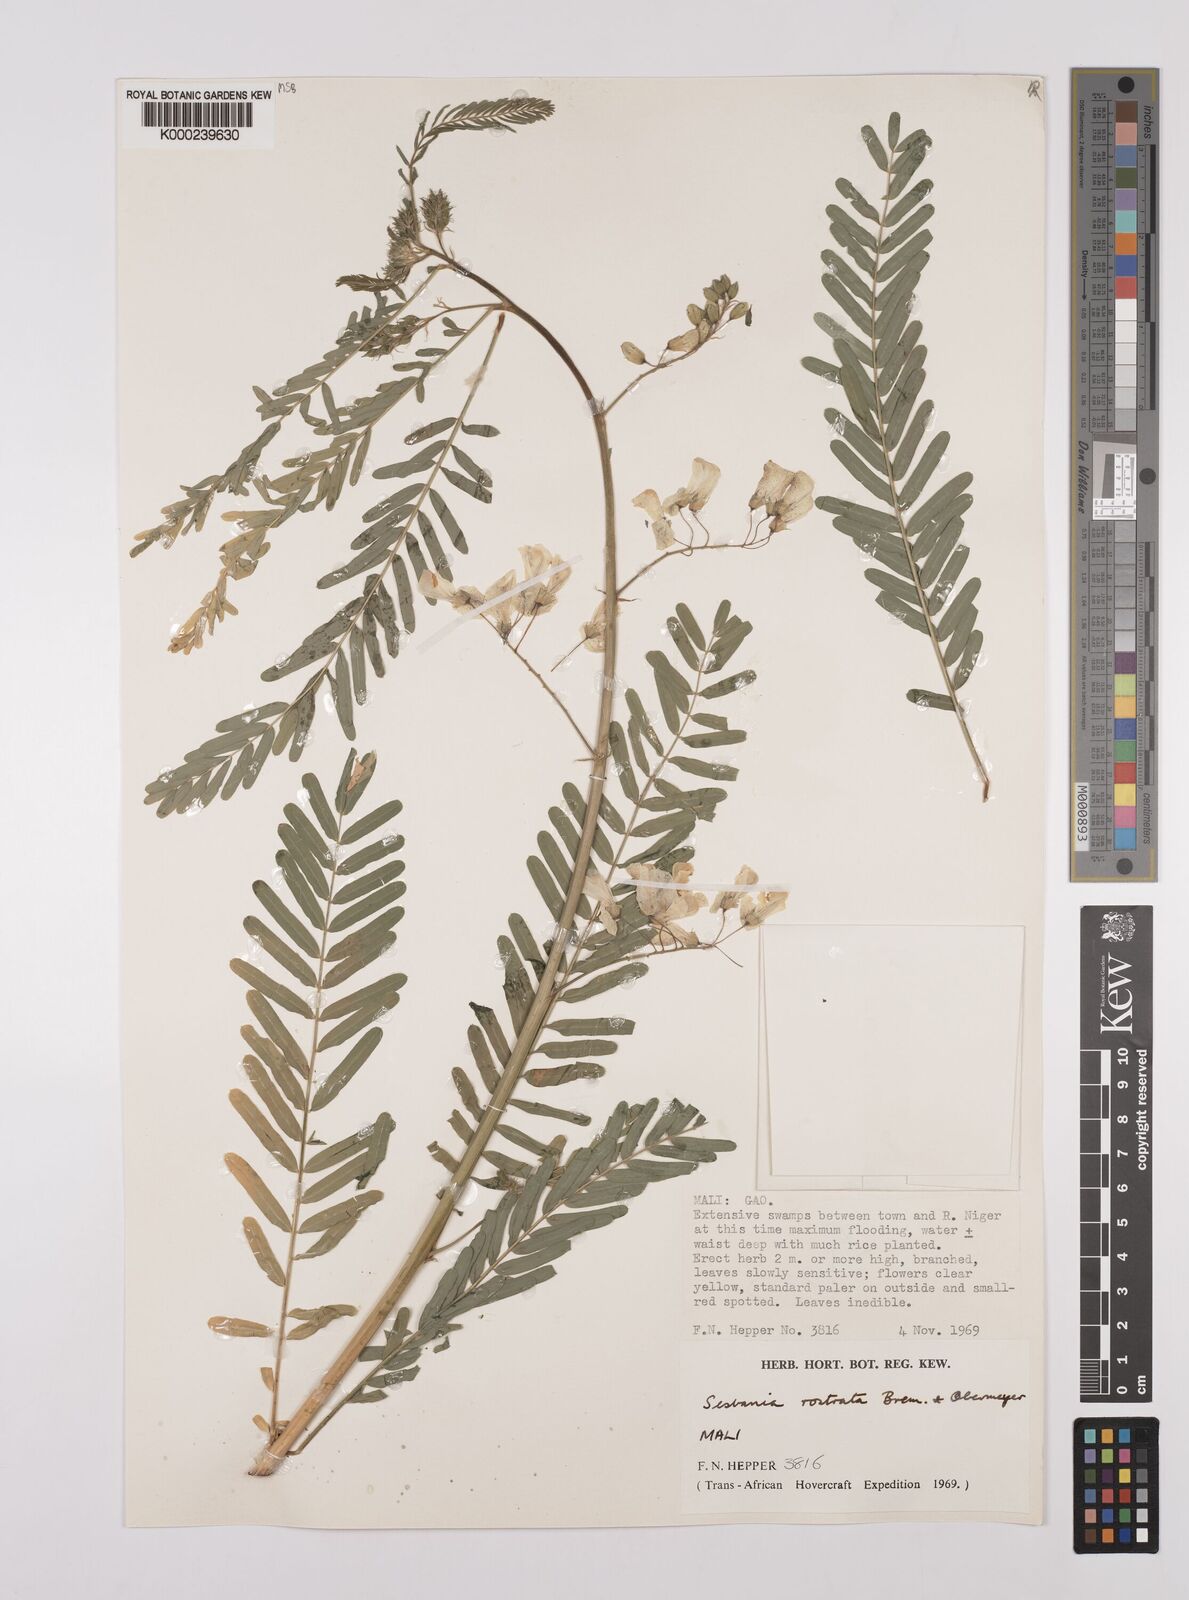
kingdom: Plantae
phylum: Tracheophyta
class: Magnoliopsida
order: Fabales
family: Fabaceae
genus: Sesbania
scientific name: Sesbania rostrata
